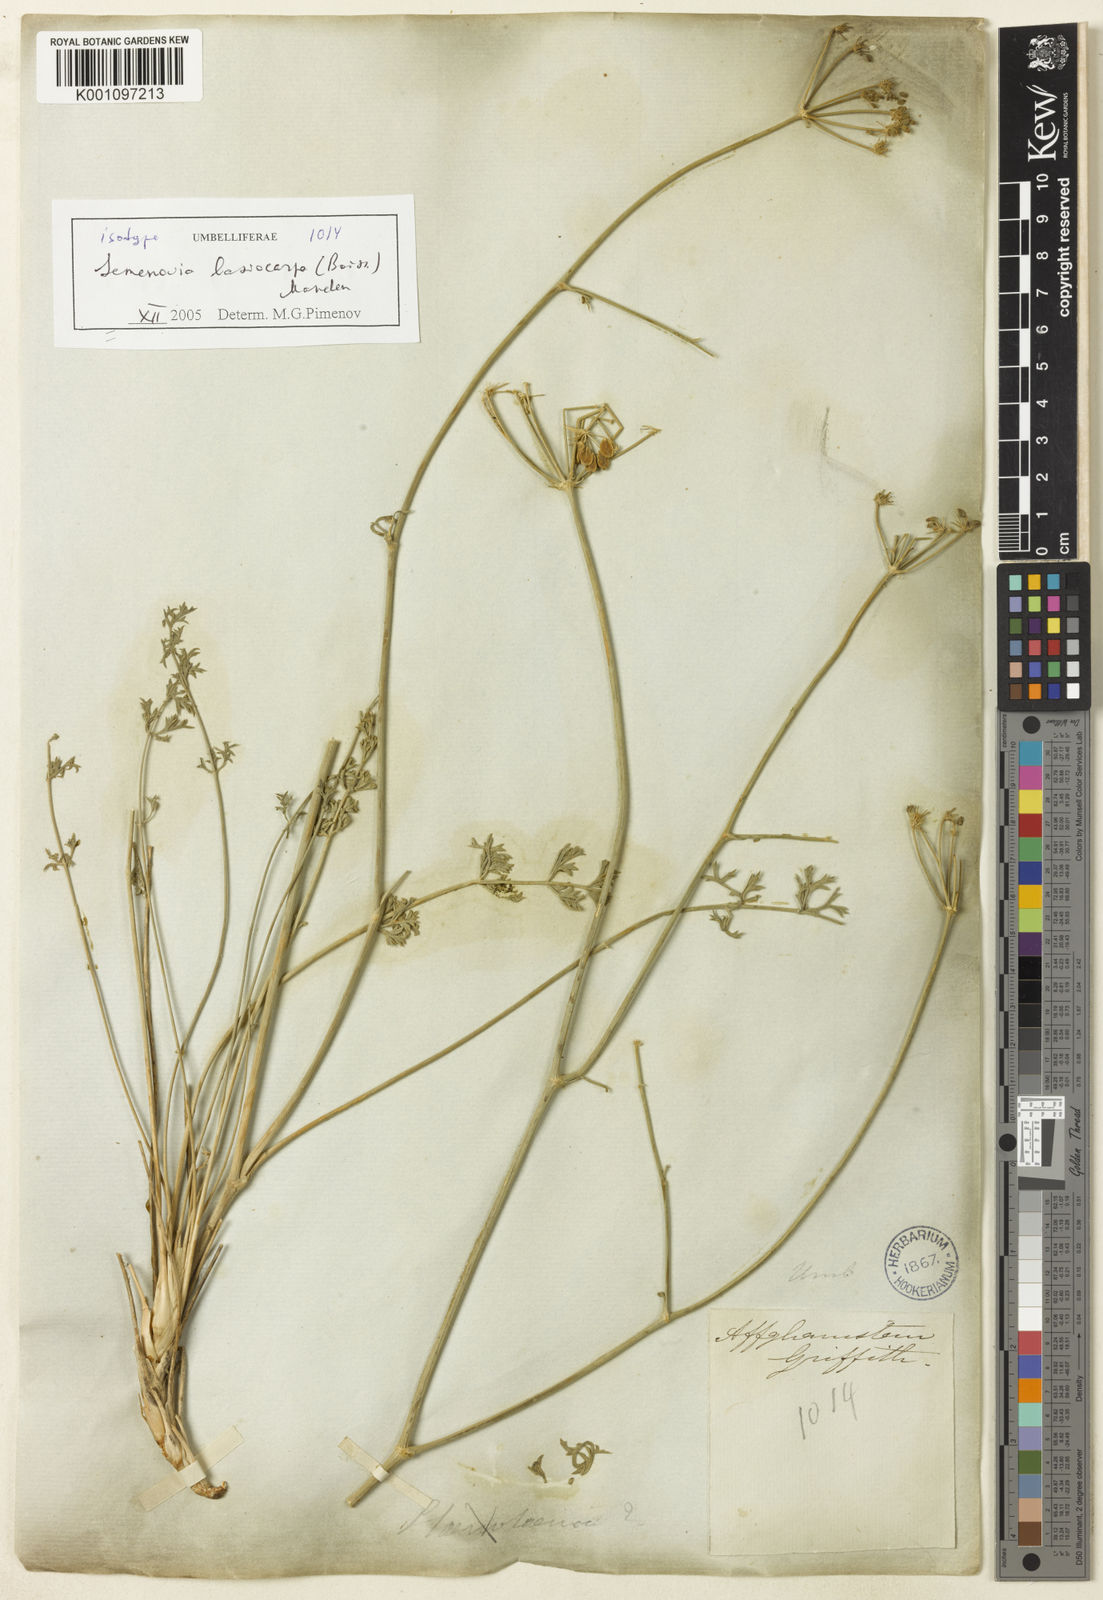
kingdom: Plantae
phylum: Tracheophyta
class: Magnoliopsida
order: Apiales
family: Apiaceae
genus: Semenovia
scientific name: Semenovia lasiocarpa
